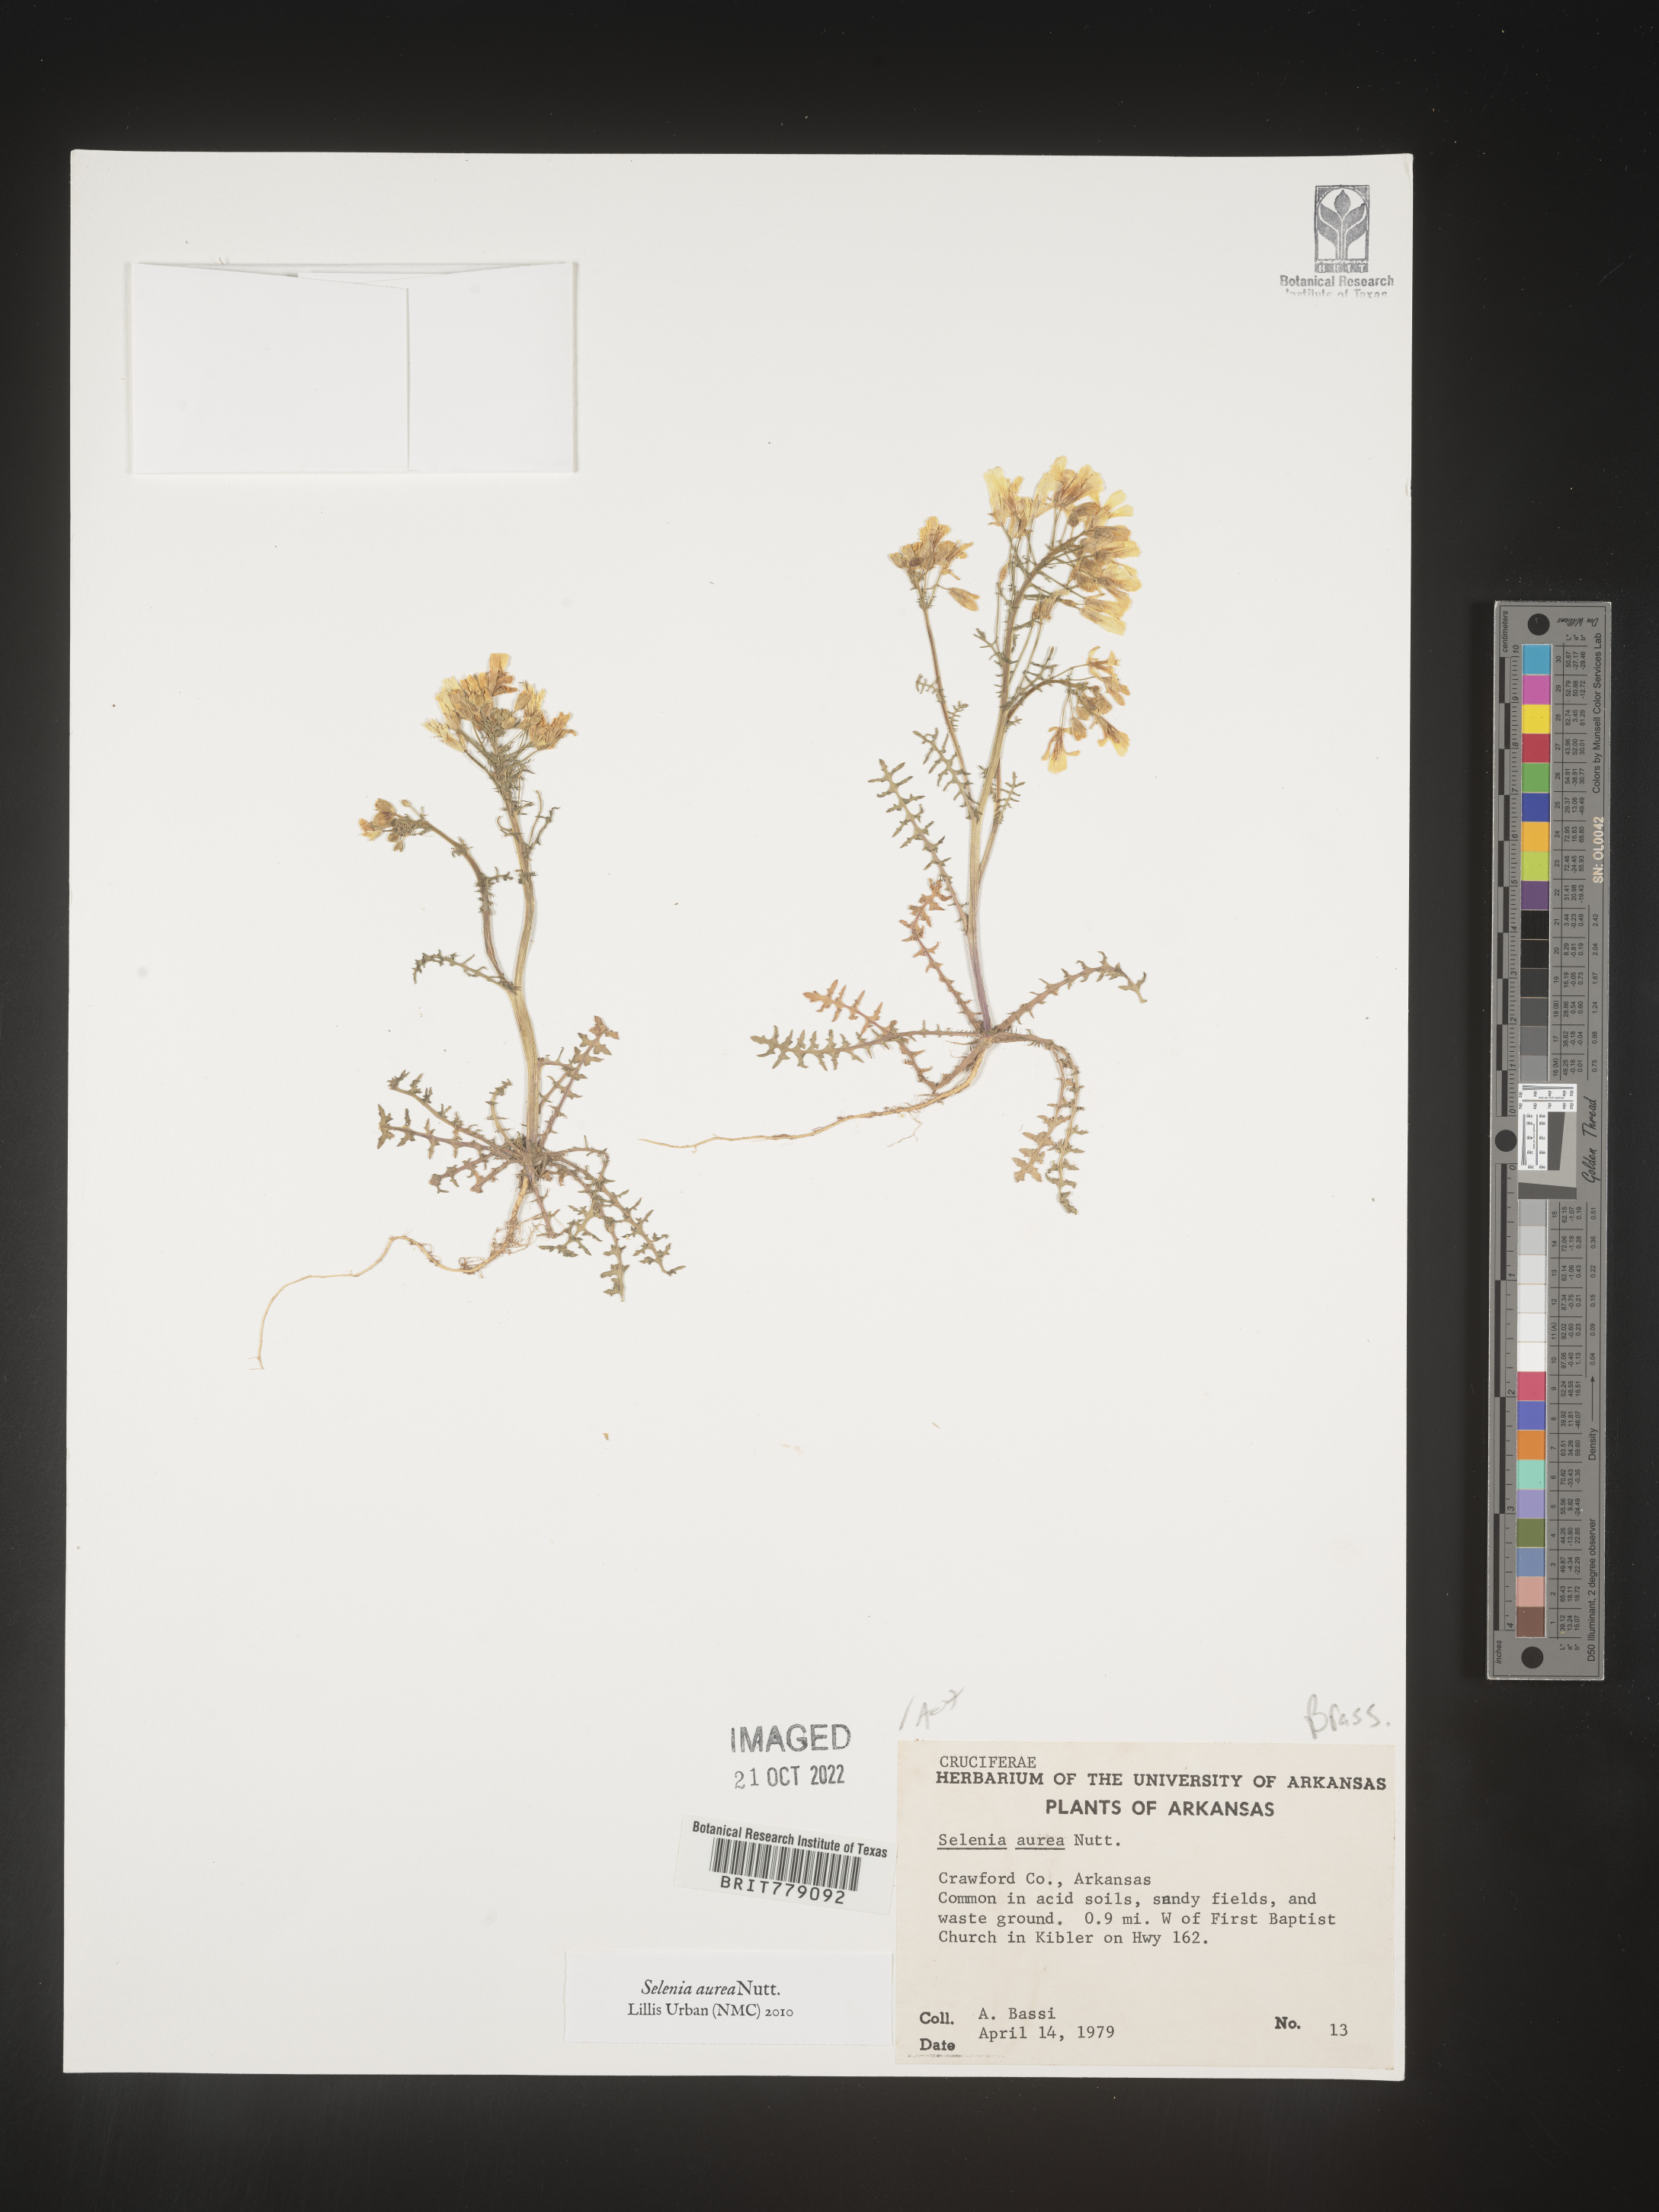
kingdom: Plantae
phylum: Tracheophyta
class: Magnoliopsida
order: Brassicales
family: Brassicaceae
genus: Selenia
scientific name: Selenia
